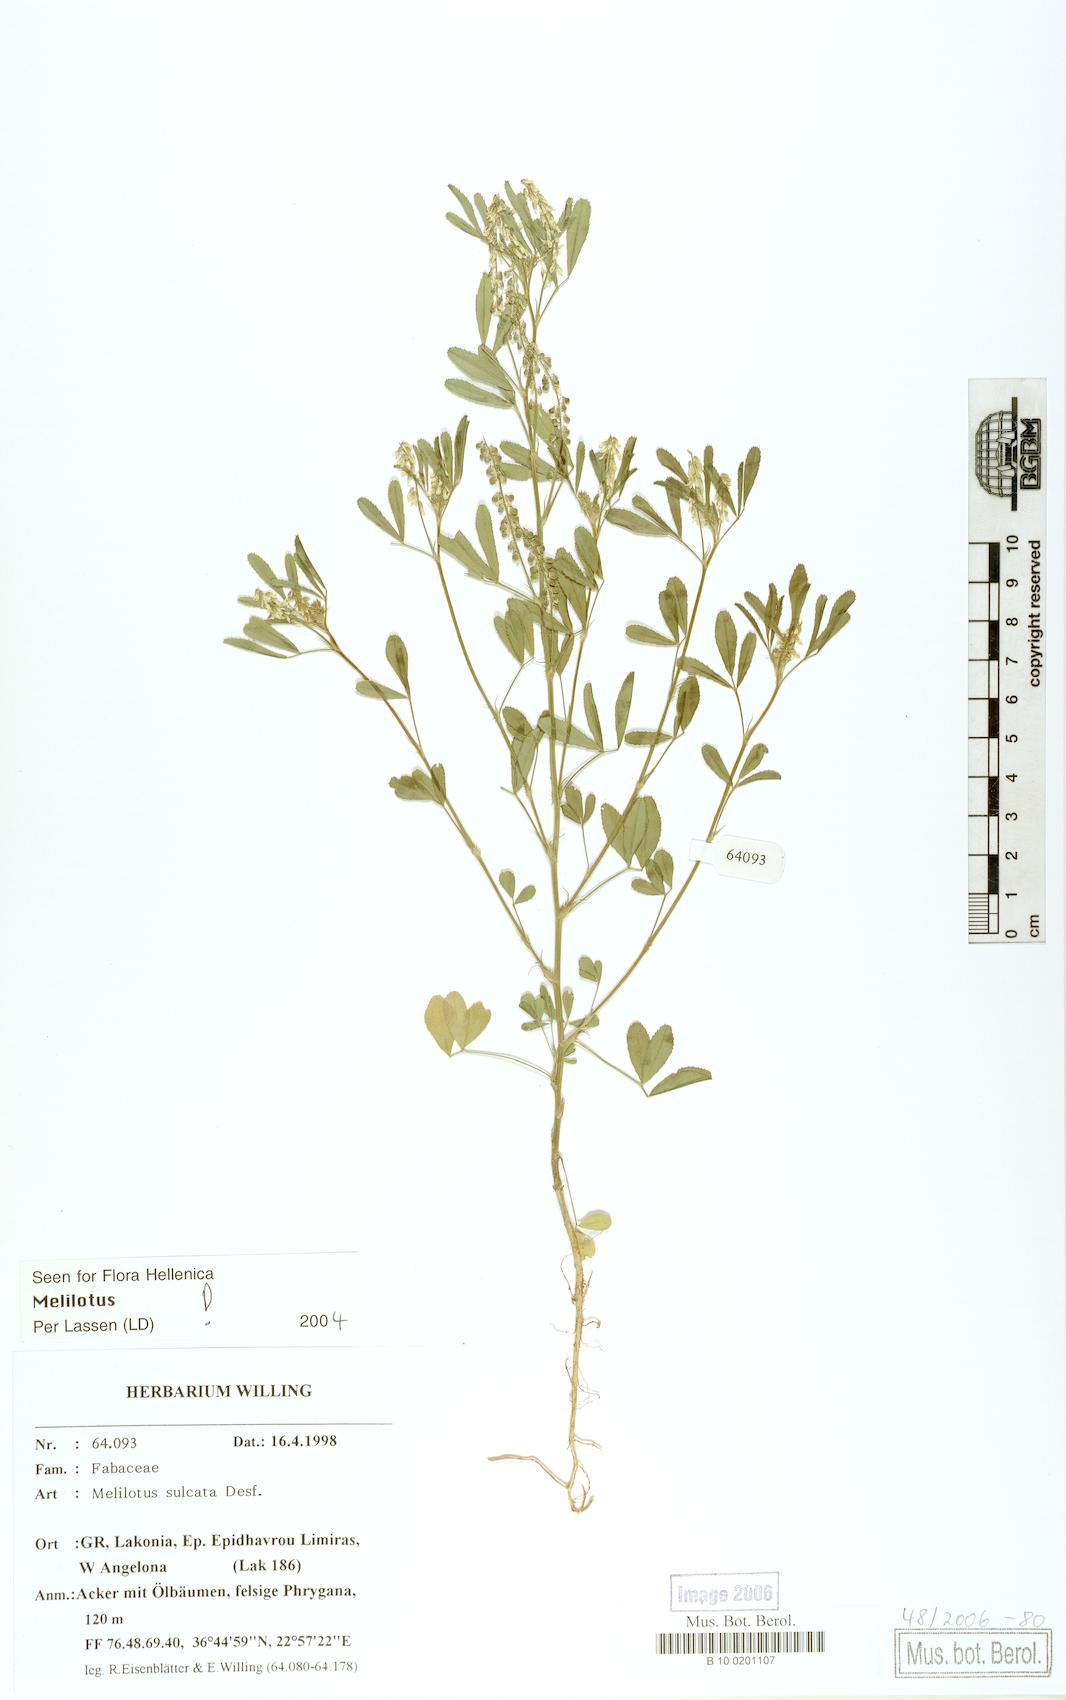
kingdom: Plantae
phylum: Tracheophyta
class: Magnoliopsida
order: Fabales
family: Fabaceae
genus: Melilotus
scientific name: Melilotus sulcatus
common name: Furrowed melilot
